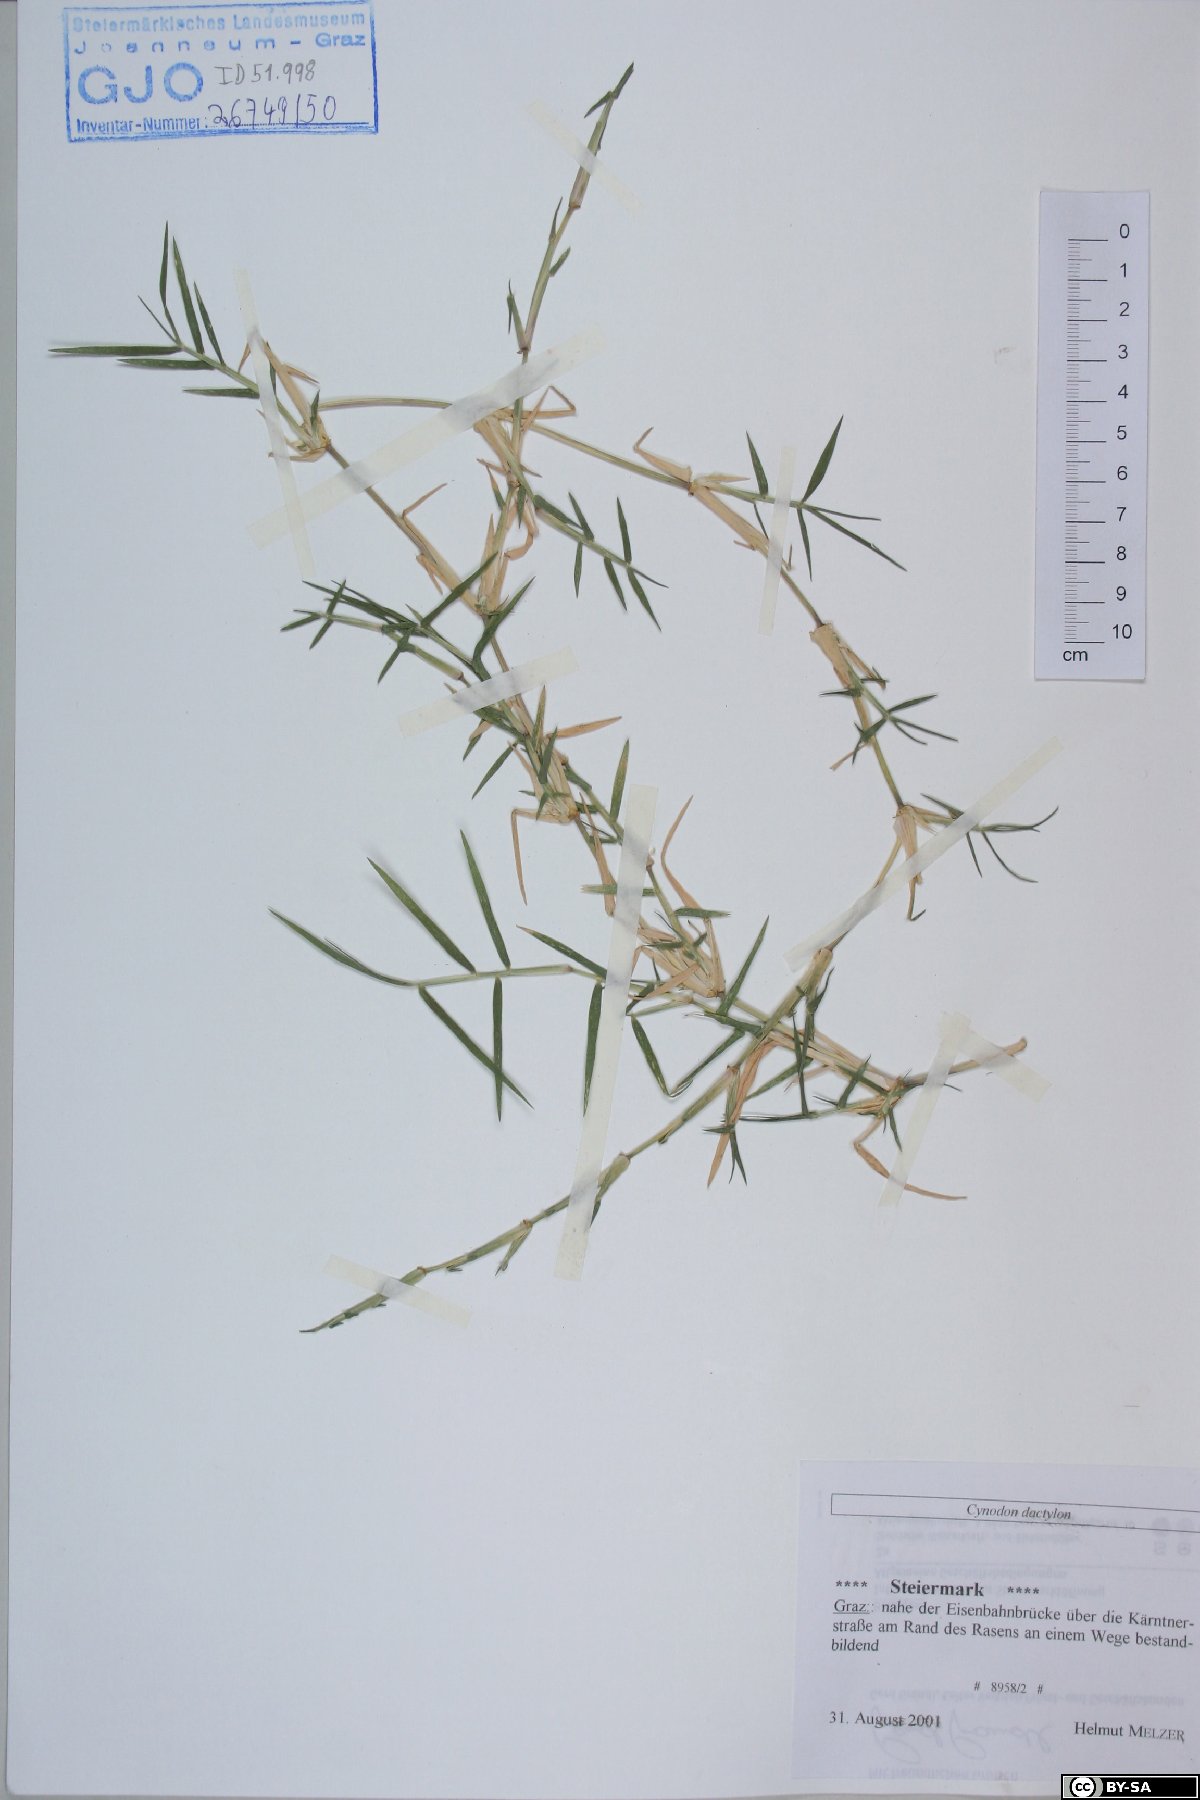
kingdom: Plantae
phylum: Tracheophyta
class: Liliopsida
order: Poales
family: Poaceae
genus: Cynodon
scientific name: Cynodon dactylon
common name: Bermuda grass
